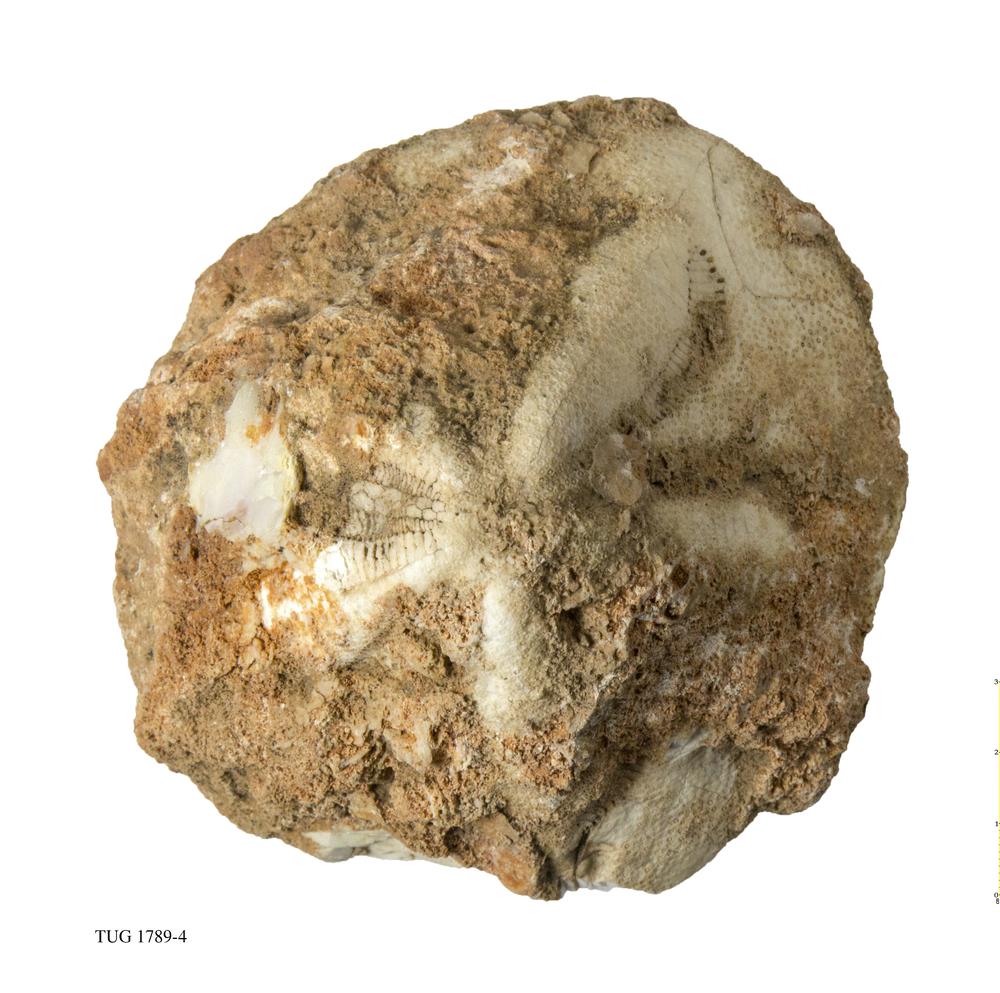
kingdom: Animalia
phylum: Echinodermata
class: Echinoidea
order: Clypeasteroida
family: Clypeasteridae
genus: Clypeaster
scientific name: Clypeaster
